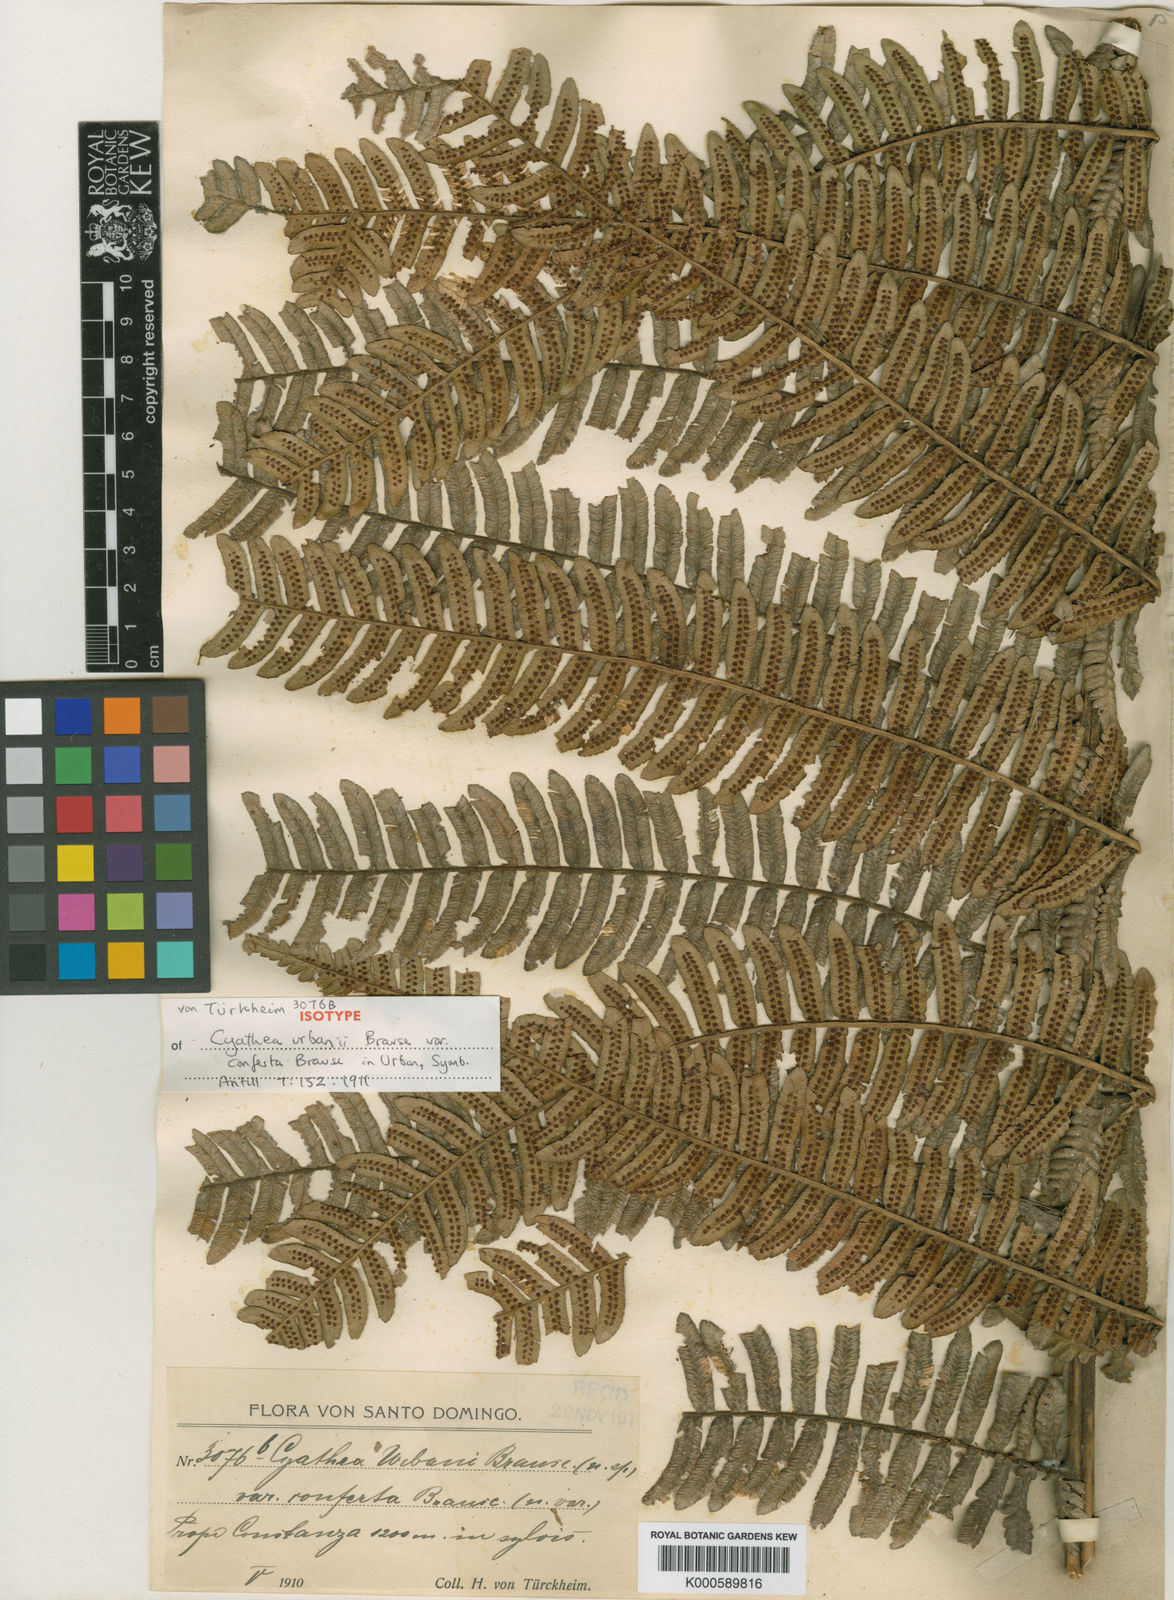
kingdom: Plantae
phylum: Tracheophyta
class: Polypodiopsida
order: Cyatheales
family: Cyatheaceae
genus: Alsophila
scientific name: Alsophila urbani
